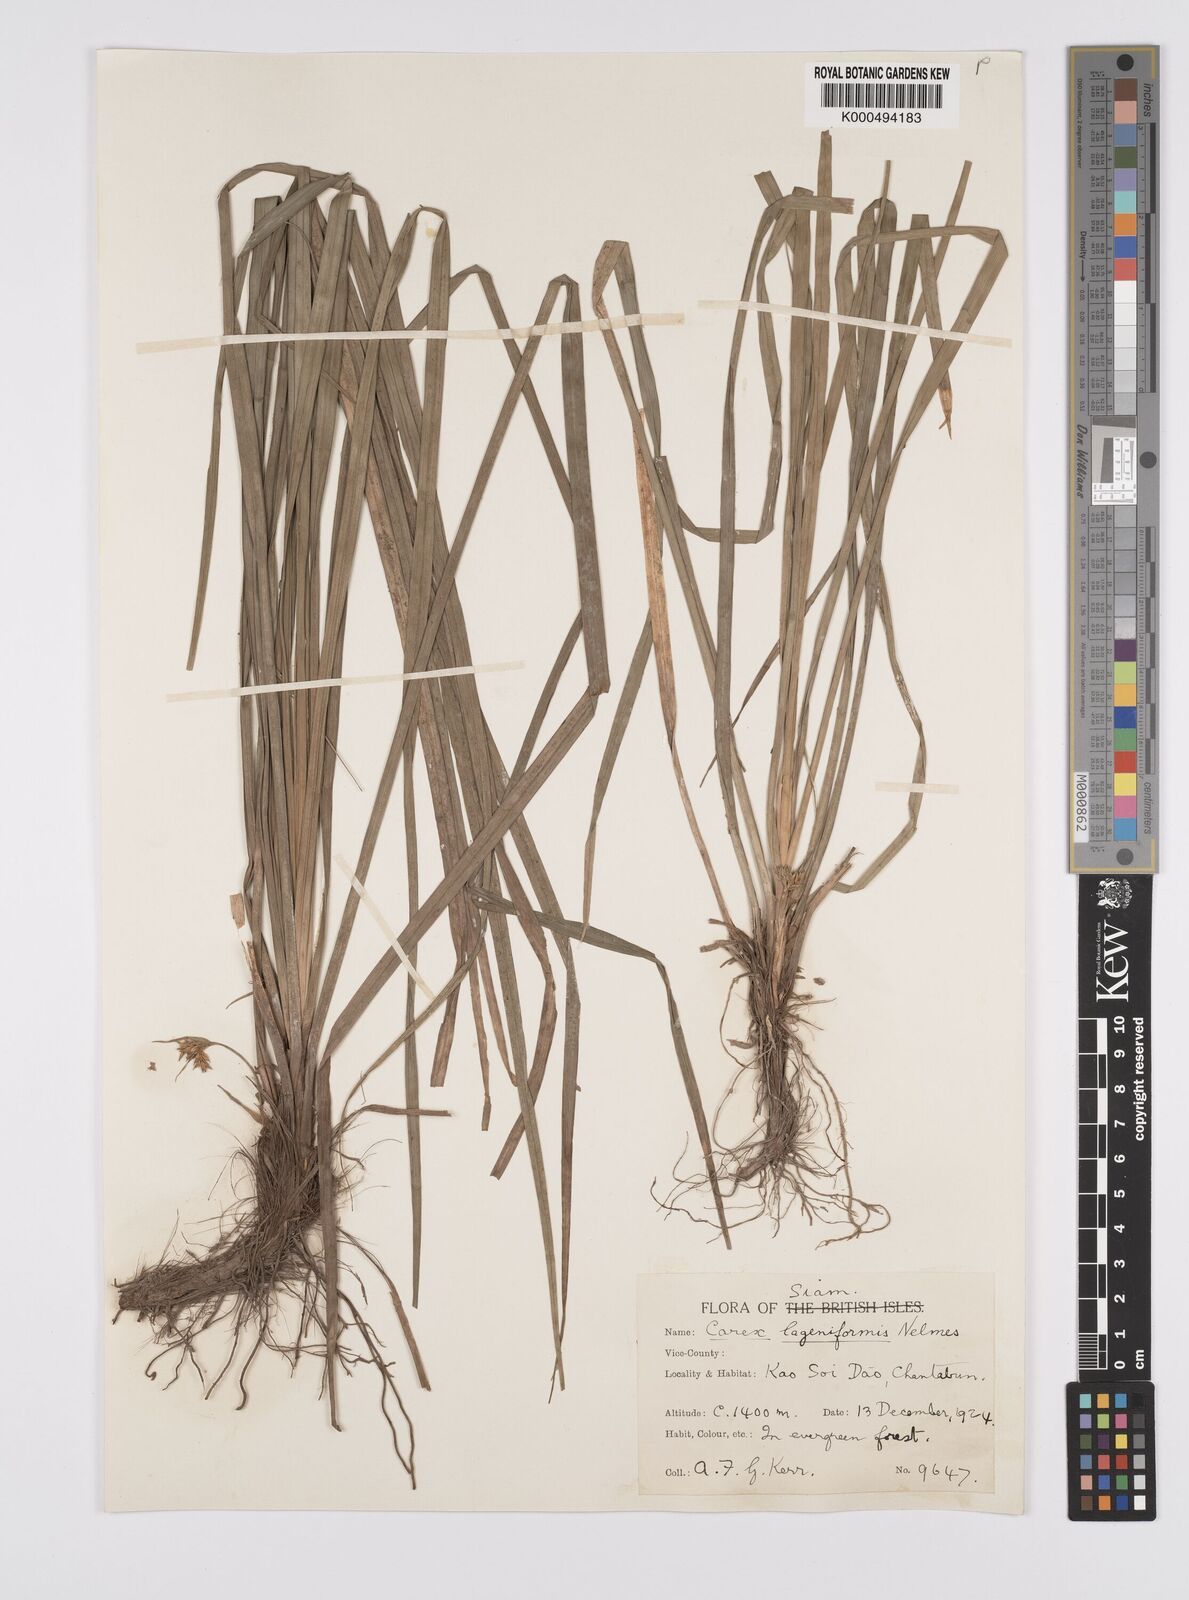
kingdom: Plantae
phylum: Tracheophyta
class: Liliopsida
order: Poales
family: Cyperaceae
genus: Carex
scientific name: Carex lageniformis
